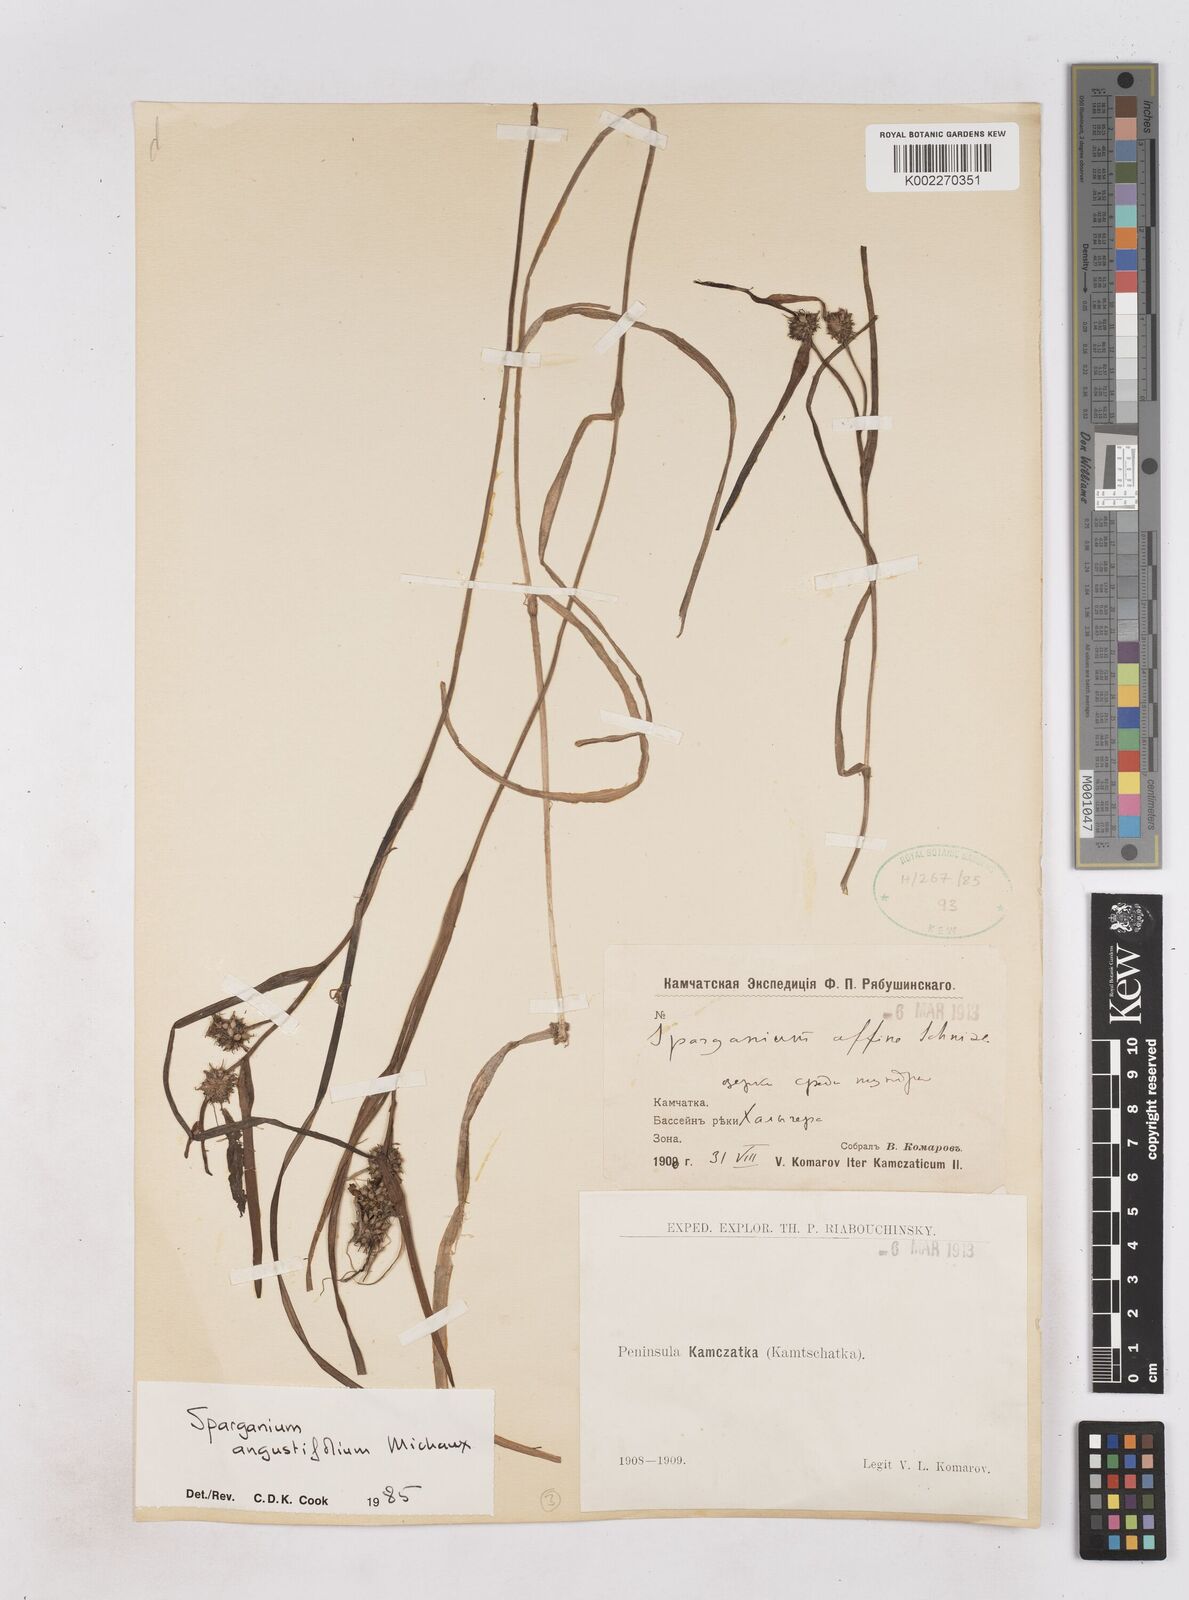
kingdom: Plantae
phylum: Tracheophyta
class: Liliopsida
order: Poales
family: Typhaceae
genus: Sparganium
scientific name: Sparganium angustifolium
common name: Floating bur-reed
